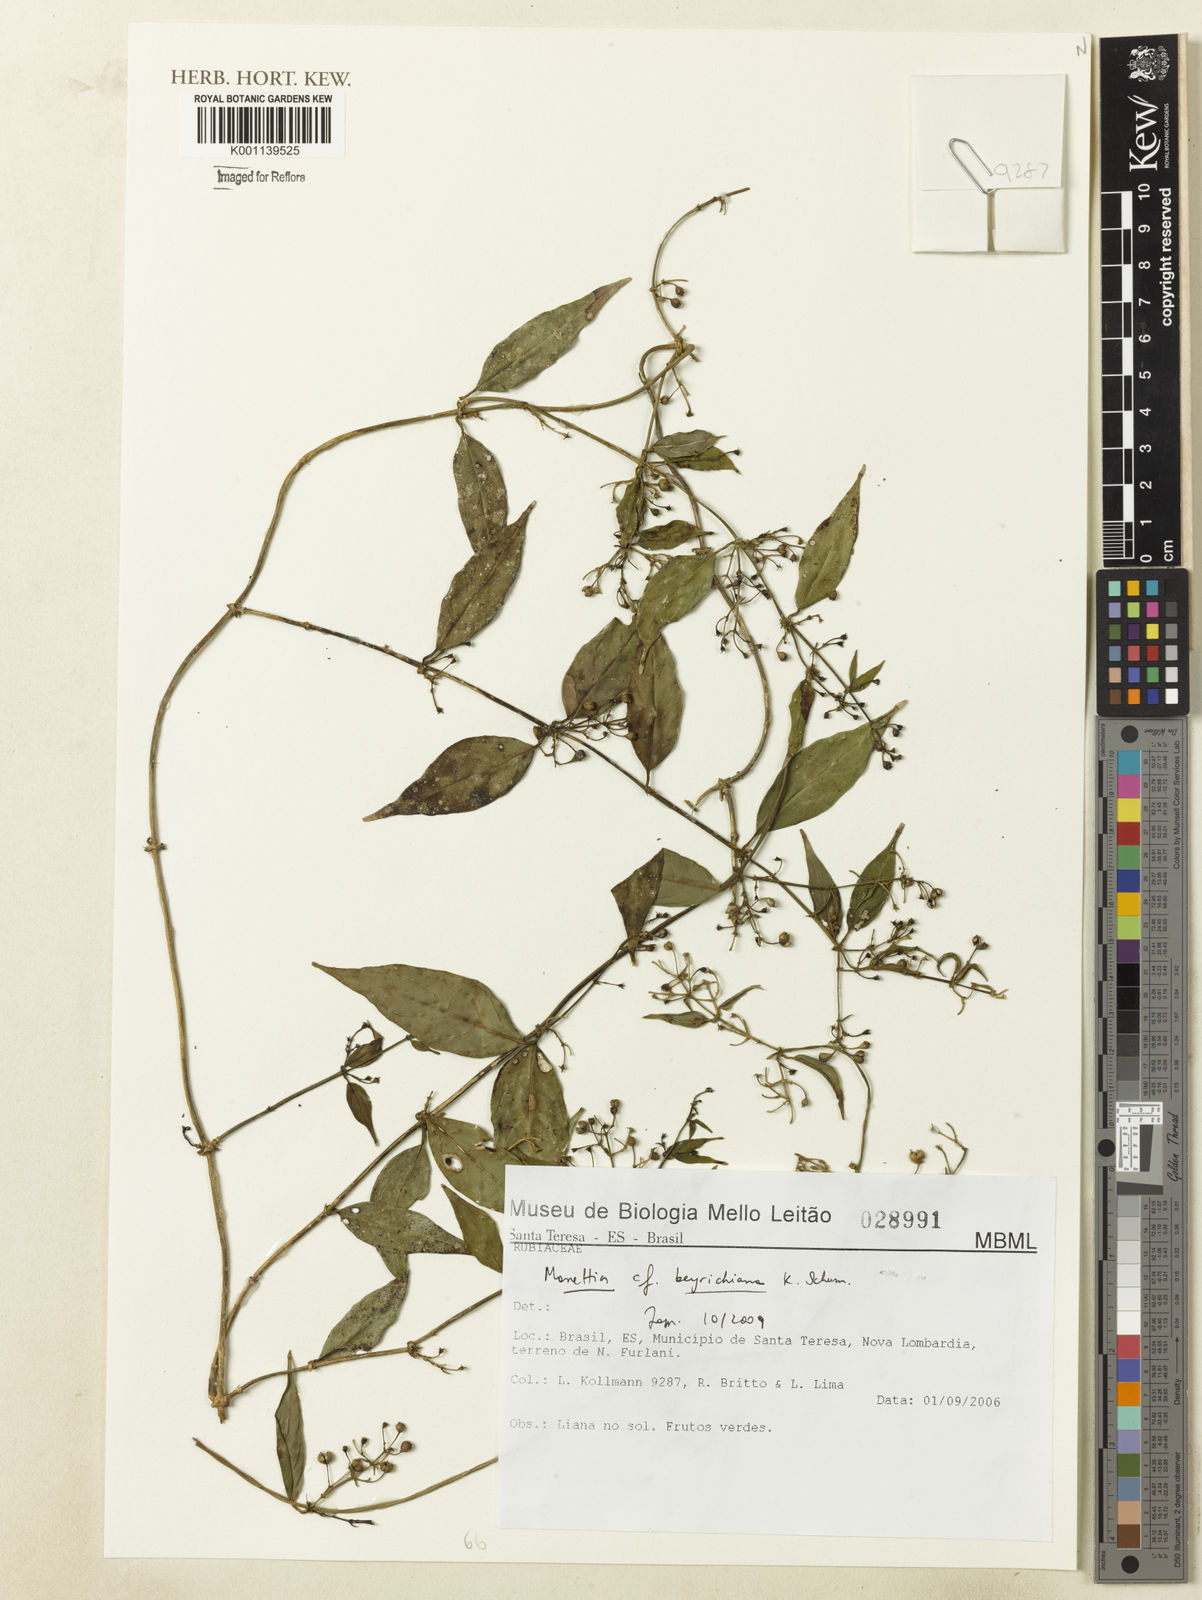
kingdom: Plantae
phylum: Tracheophyta
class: Magnoliopsida
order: Gentianales
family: Rubiaceae
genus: Manettia
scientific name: Manettia beyrichiana
